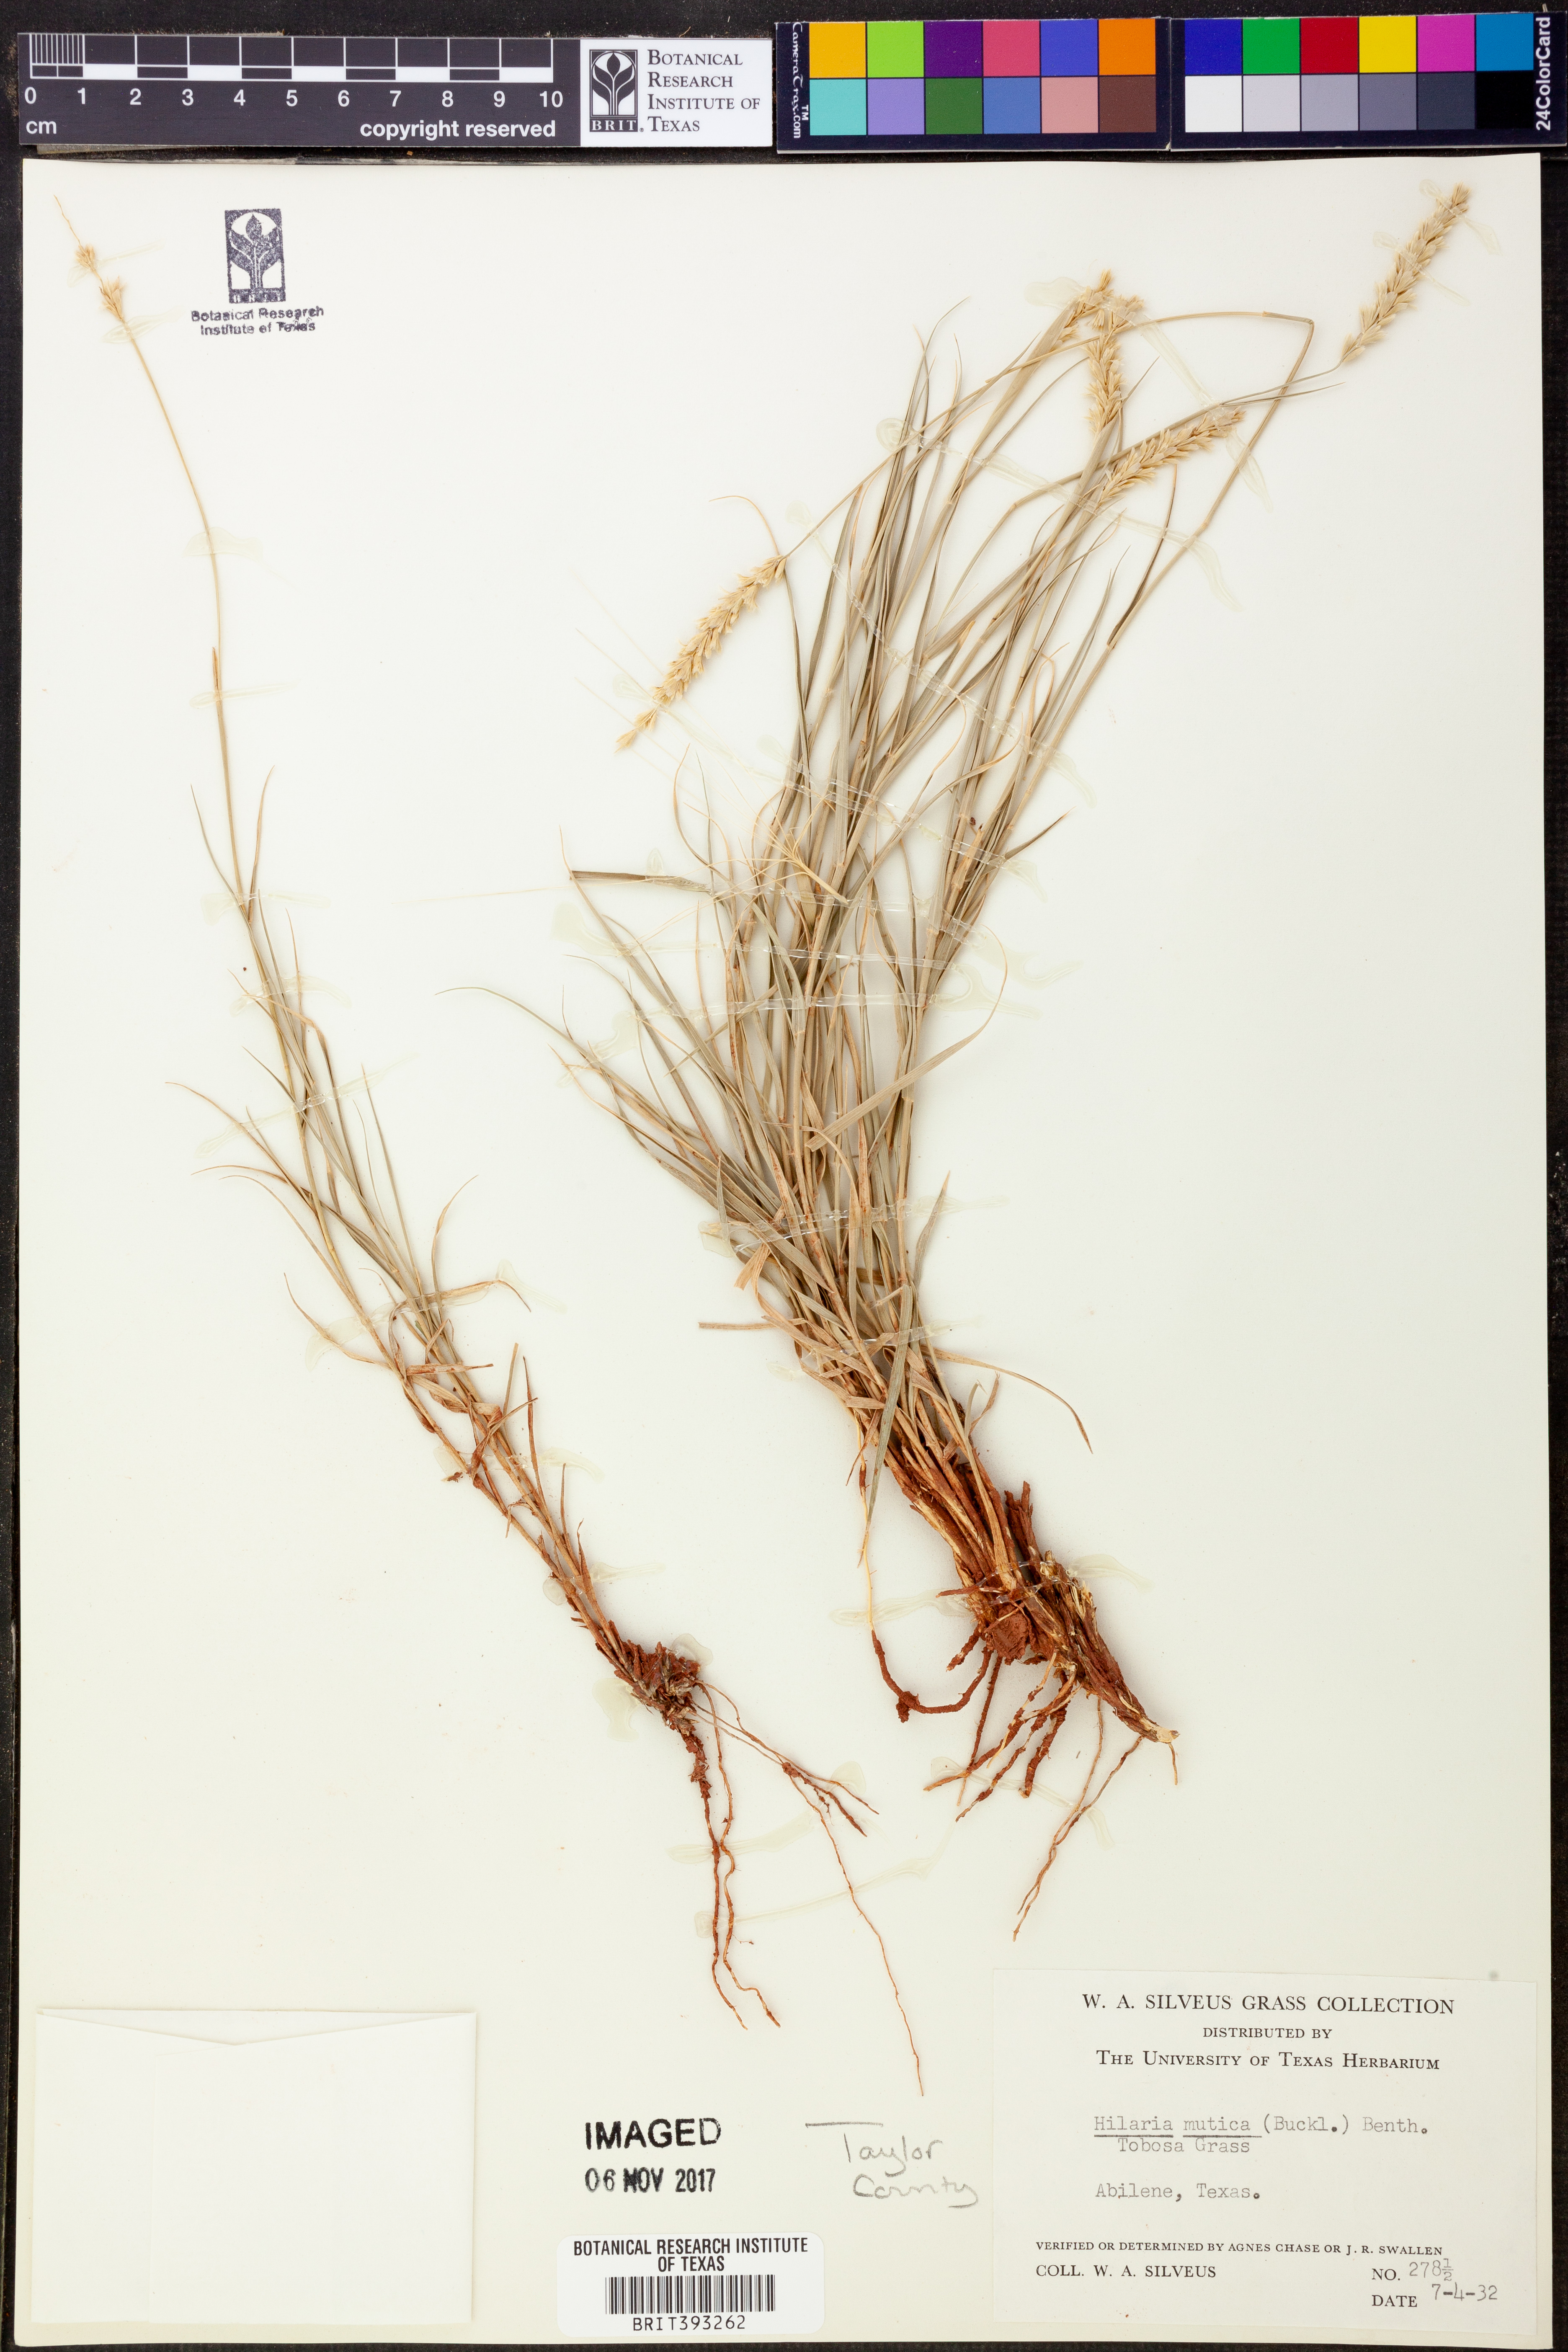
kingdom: Plantae
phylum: Tracheophyta
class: Liliopsida
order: Poales
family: Poaceae
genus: Hilaria
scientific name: Hilaria mutica
